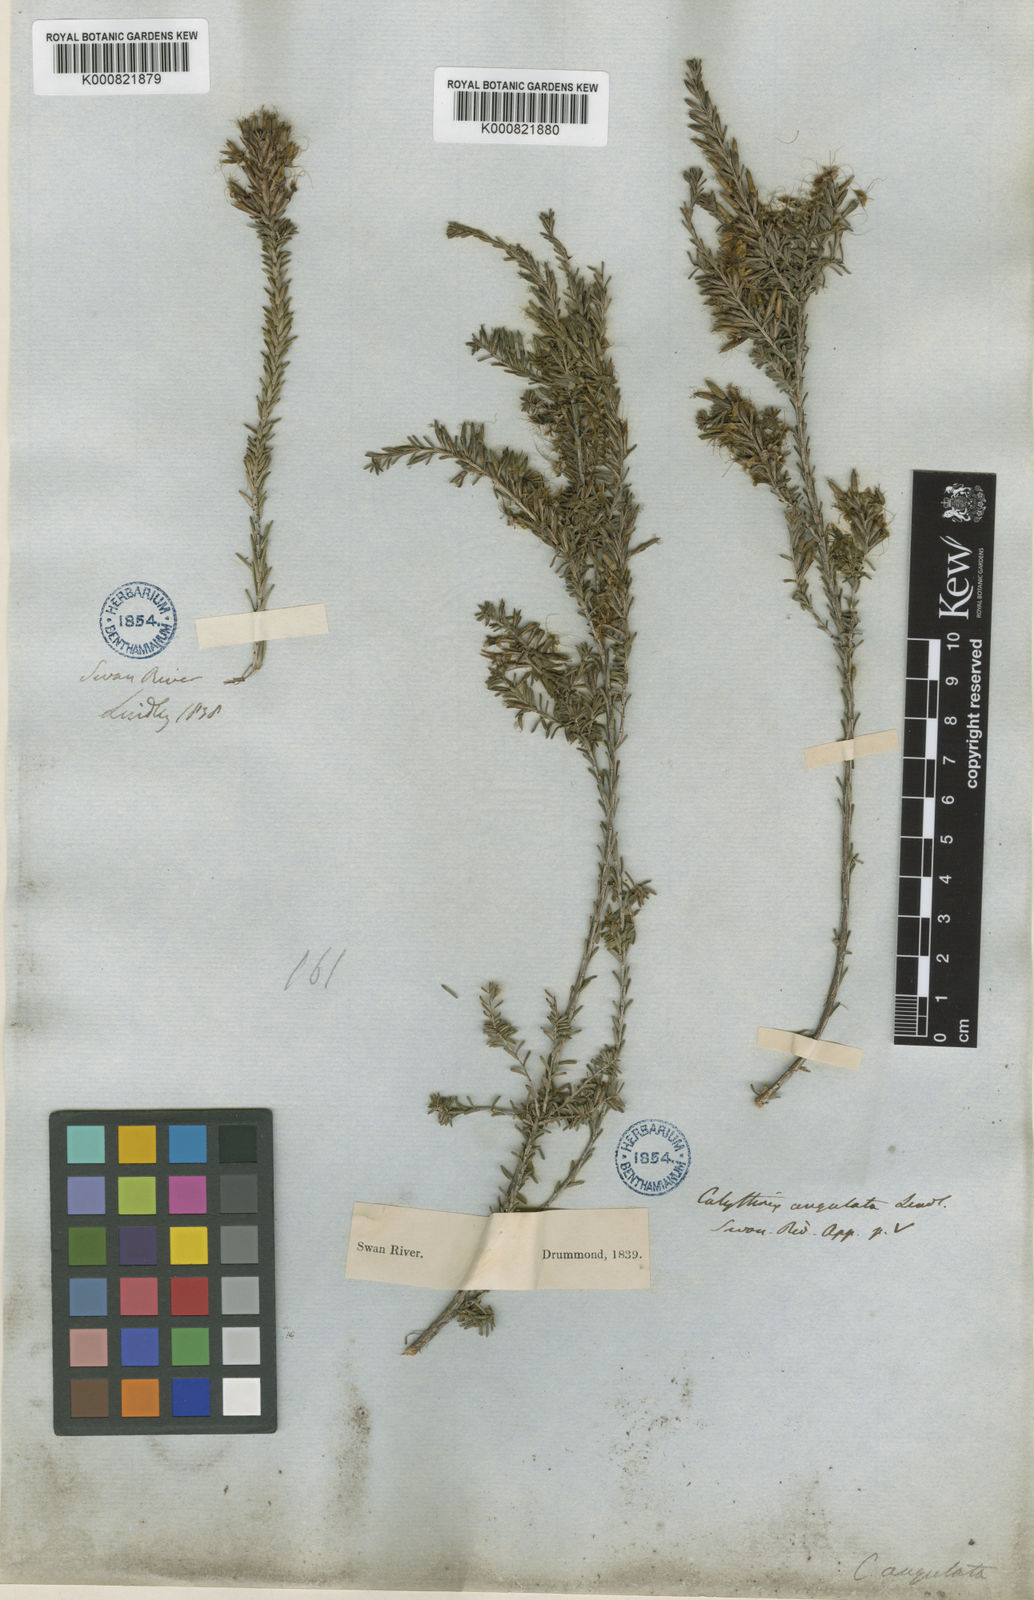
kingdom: Plantae
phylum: Tracheophyta
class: Magnoliopsida
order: Myrtales
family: Myrtaceae
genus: Calytrix
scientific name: Calytrix angulata
